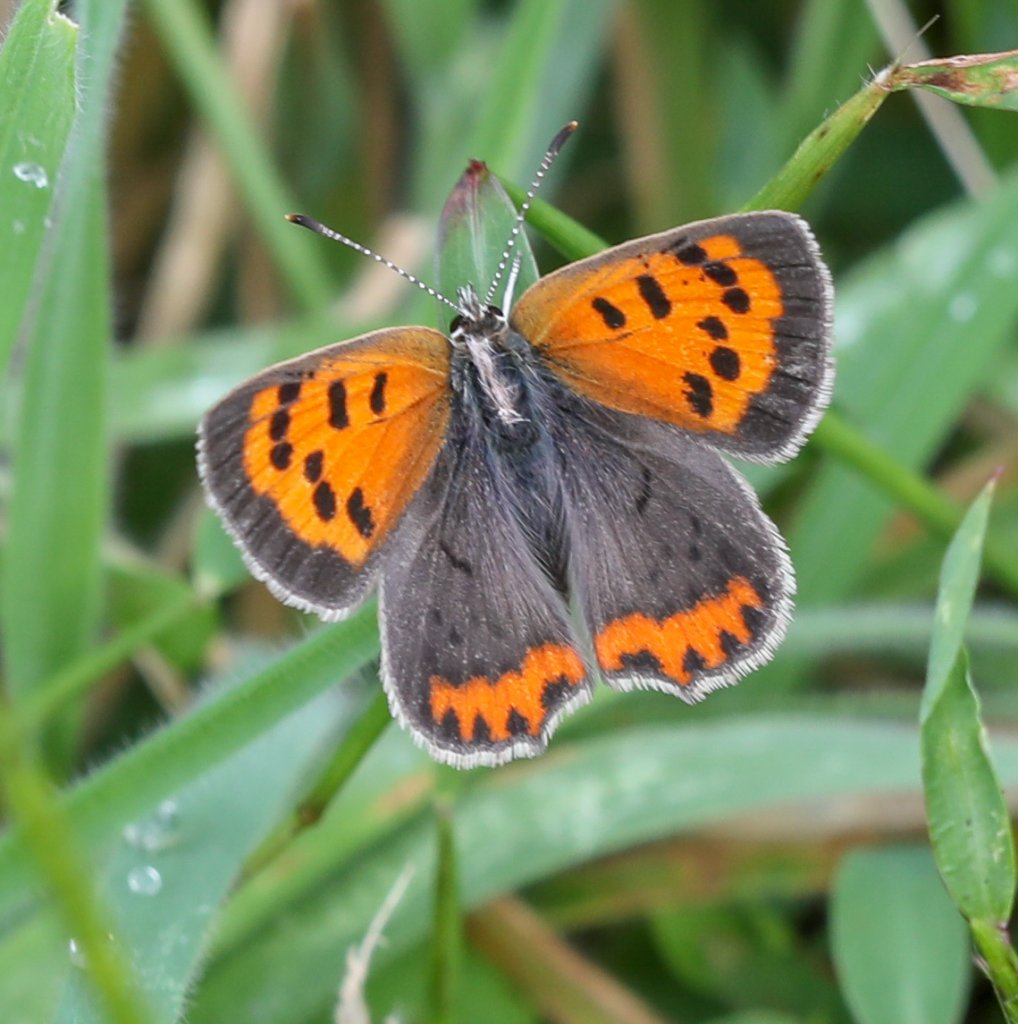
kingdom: Animalia
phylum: Arthropoda
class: Insecta
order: Lepidoptera
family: Lycaenidae
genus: Lycaena
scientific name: Lycaena phlaeas
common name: American Copper
